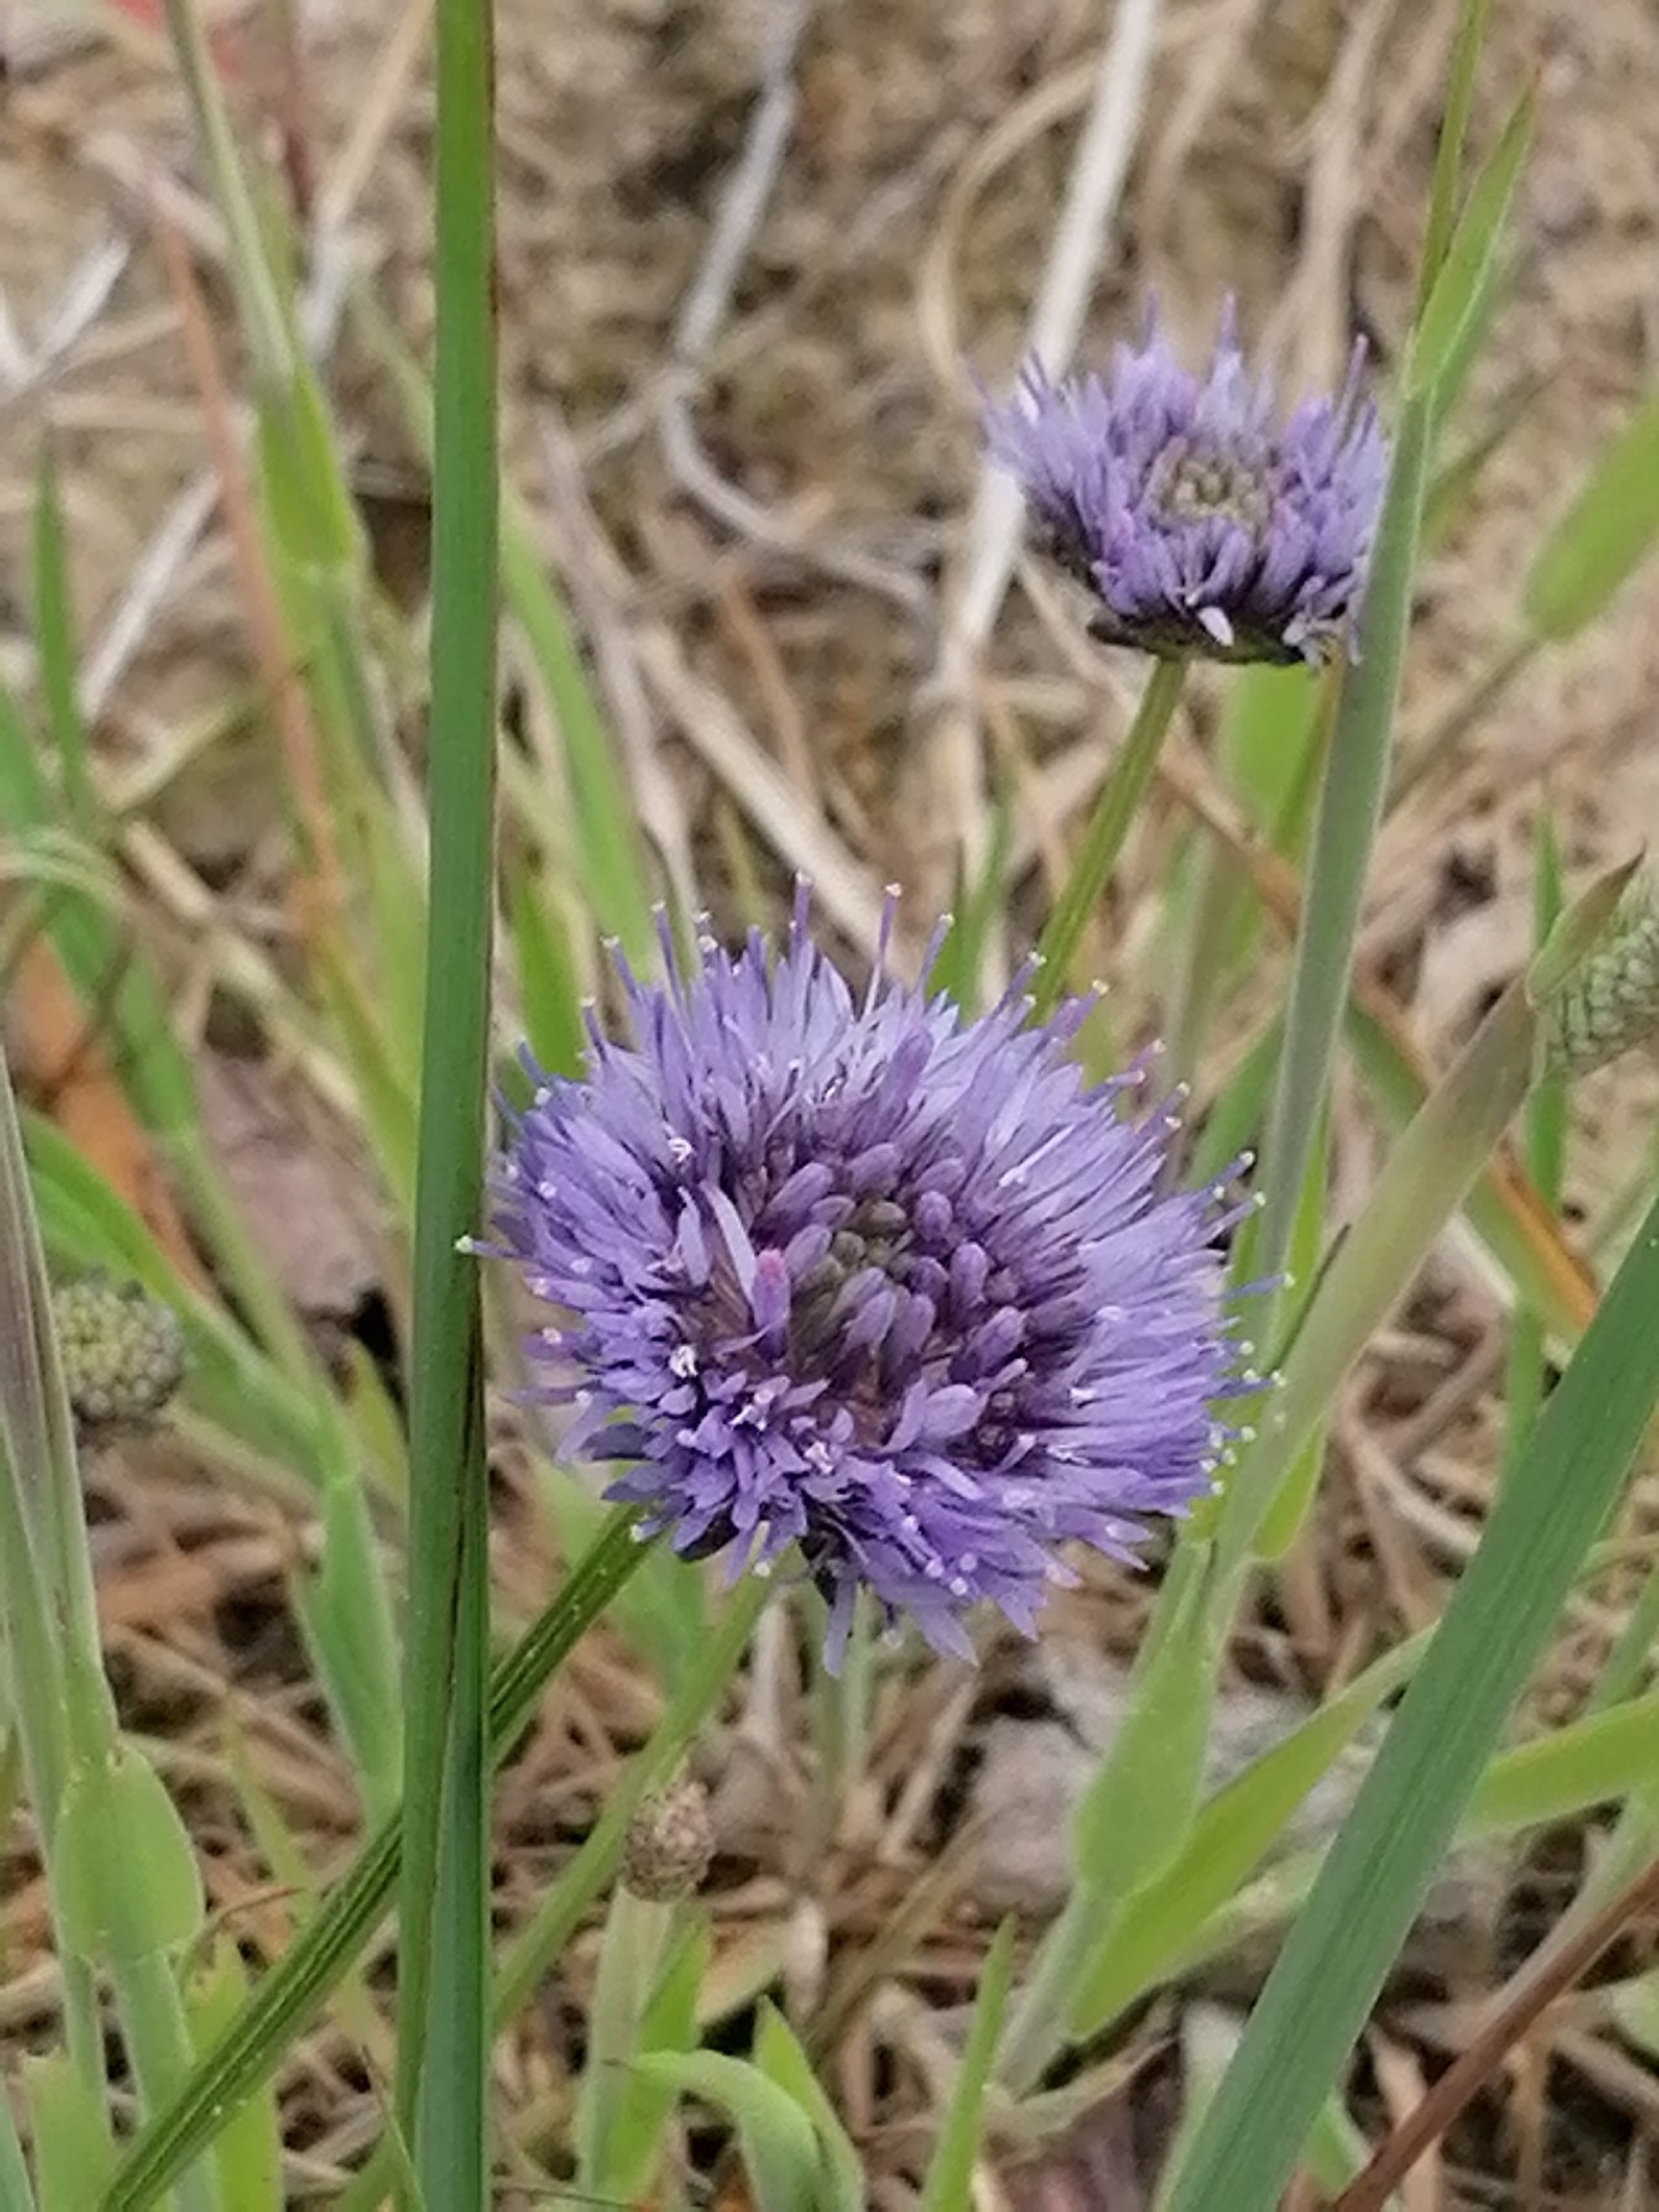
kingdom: Plantae
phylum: Tracheophyta
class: Magnoliopsida
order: Asterales
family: Campanulaceae
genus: Jasione
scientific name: Jasione montana
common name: Blåmunke
